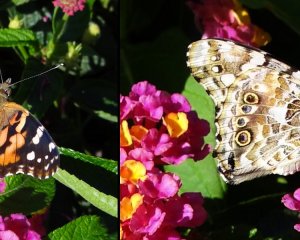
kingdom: Animalia
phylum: Arthropoda
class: Insecta
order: Lepidoptera
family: Nymphalidae
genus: Vanessa
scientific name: Vanessa cardui
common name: Painted Lady
